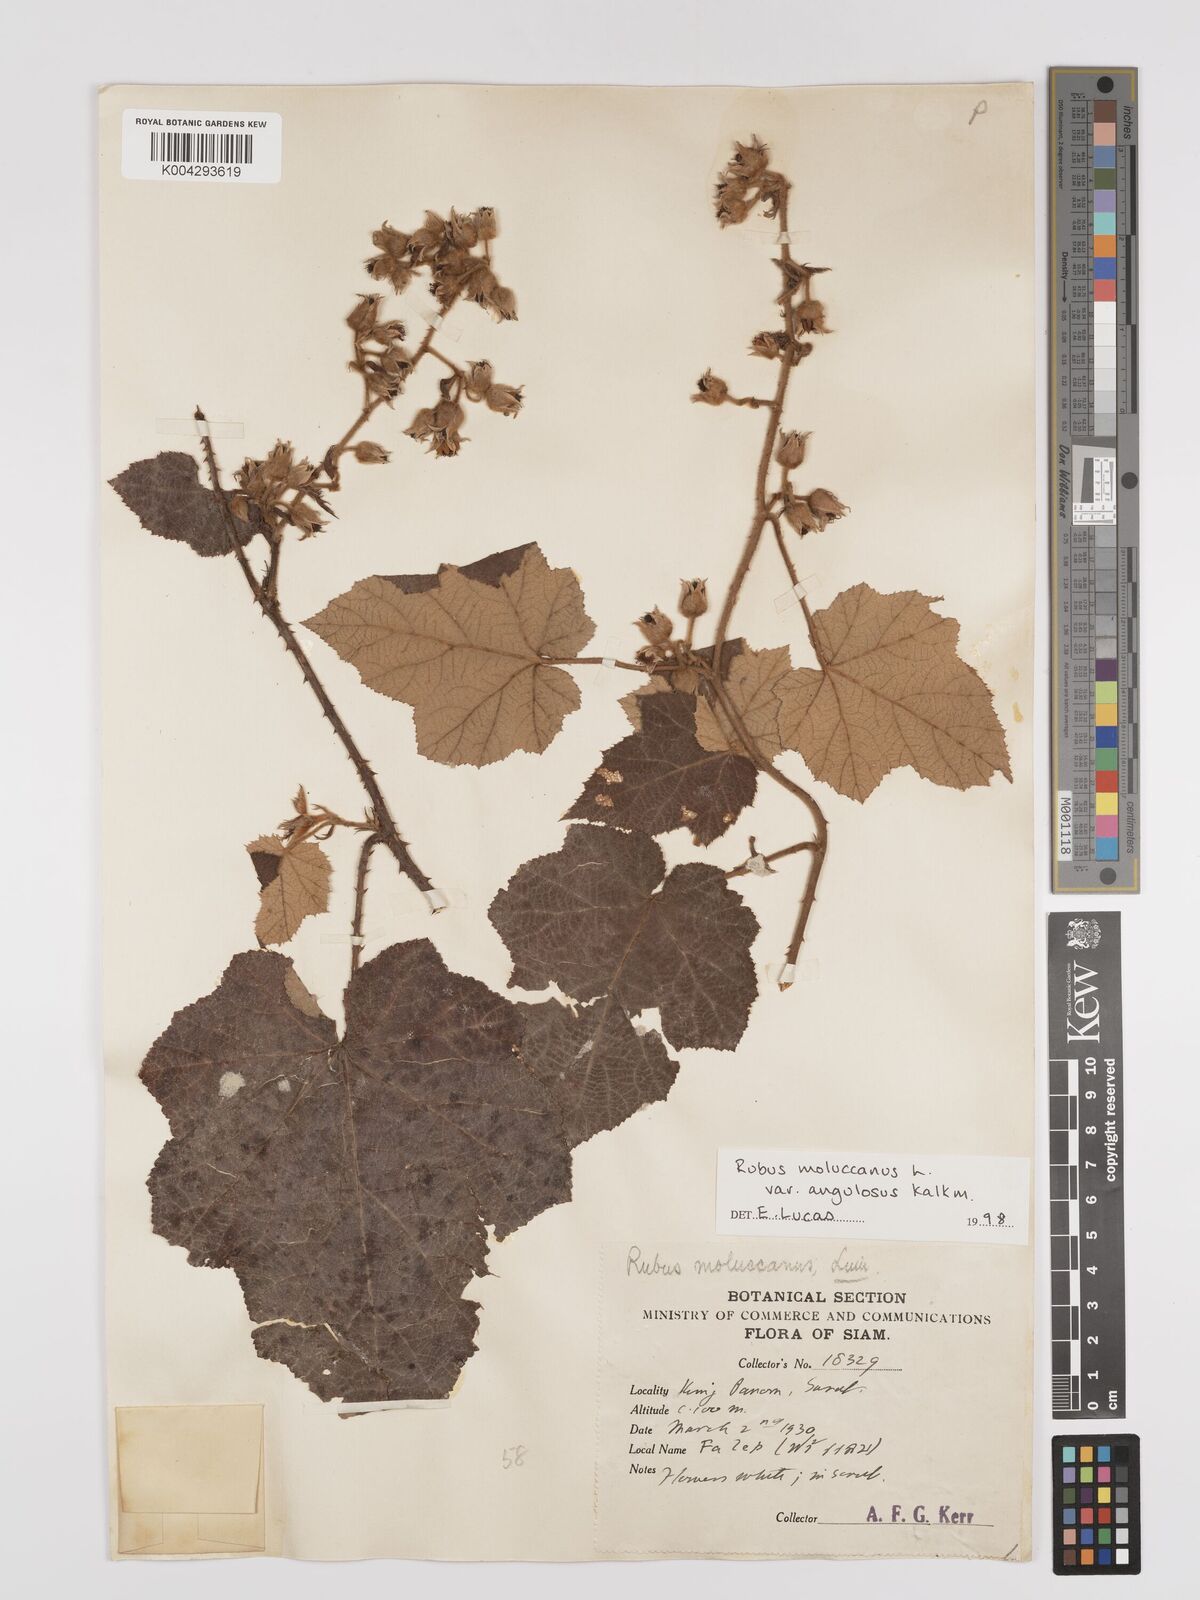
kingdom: Plantae
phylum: Tracheophyta
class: Magnoliopsida
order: Rosales
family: Rosaceae
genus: Rubus
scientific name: Rubus moluccanus
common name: Wild raspberry
